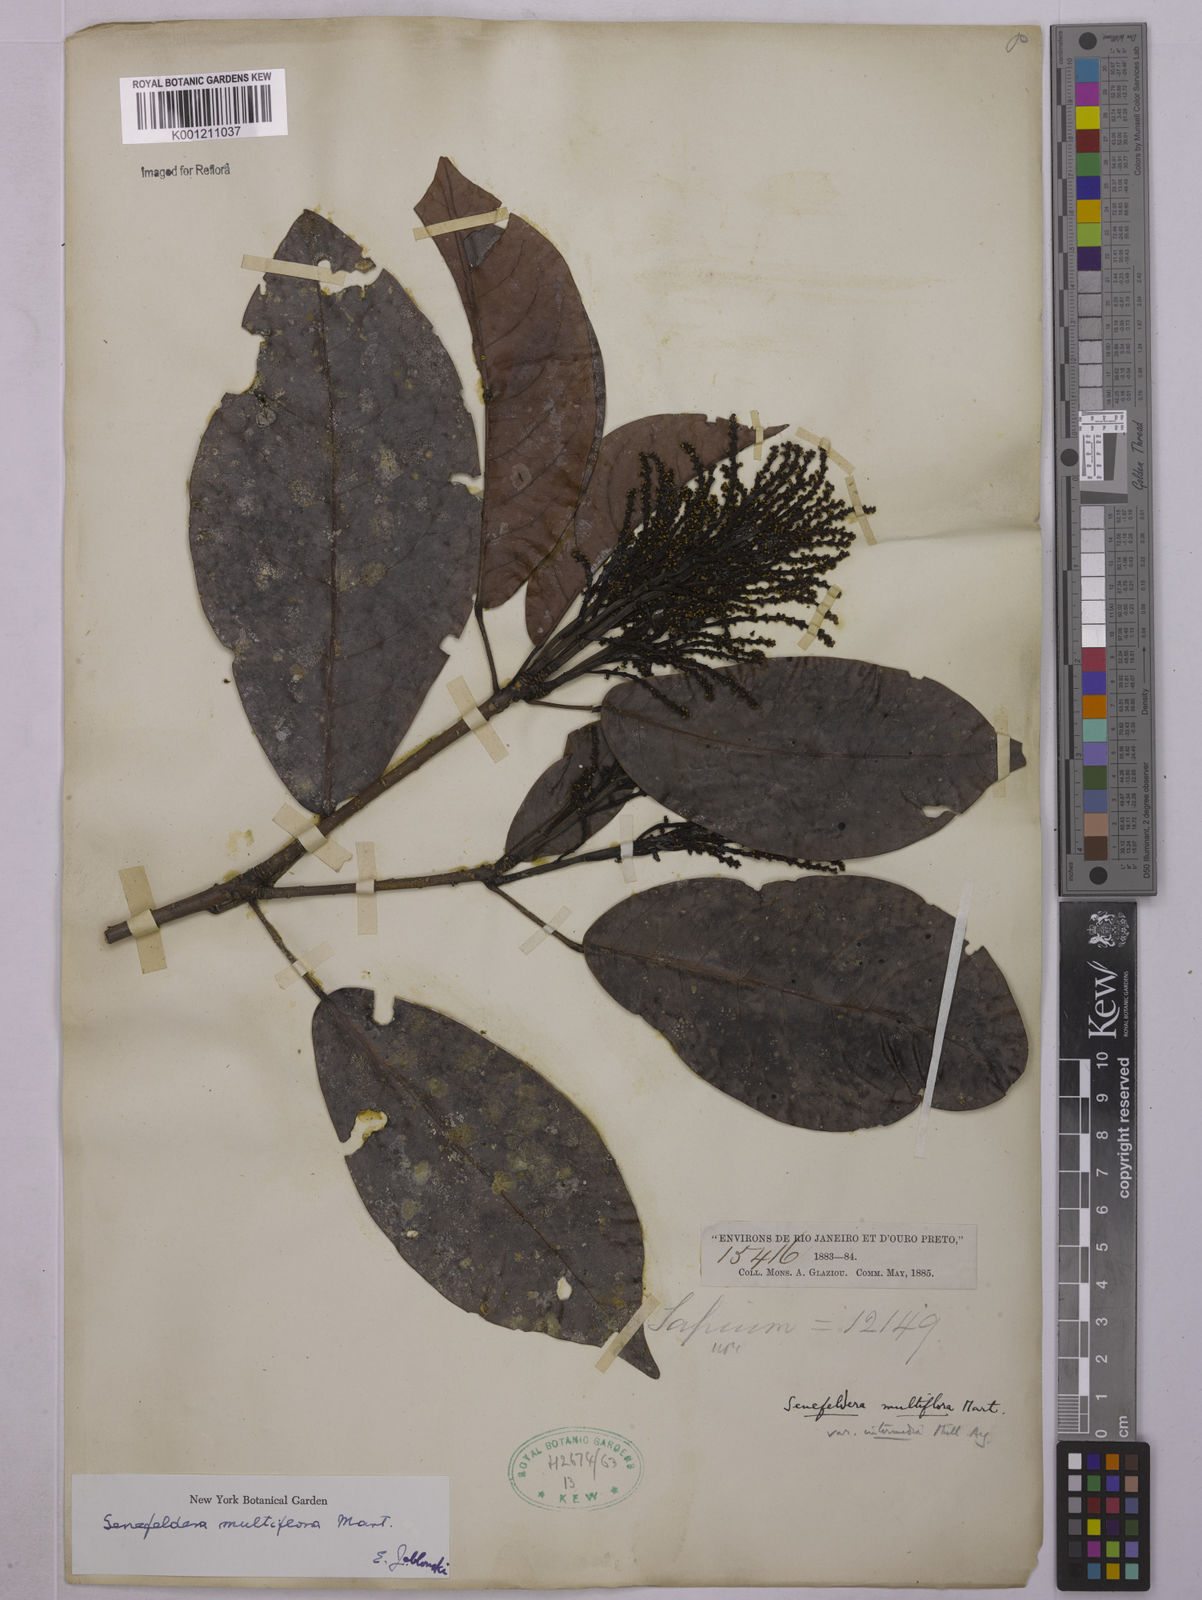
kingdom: Plantae
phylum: Tracheophyta
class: Magnoliopsida
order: Malpighiales
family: Euphorbiaceae
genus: Senefeldera
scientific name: Senefeldera verticillata
